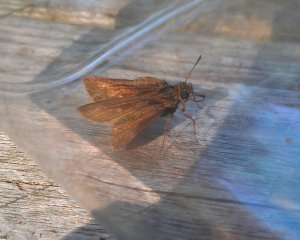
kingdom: Animalia
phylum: Arthropoda
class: Insecta
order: Lepidoptera
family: Hesperiidae
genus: Euphyes
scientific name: Euphyes vestris
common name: Dun Skipper
